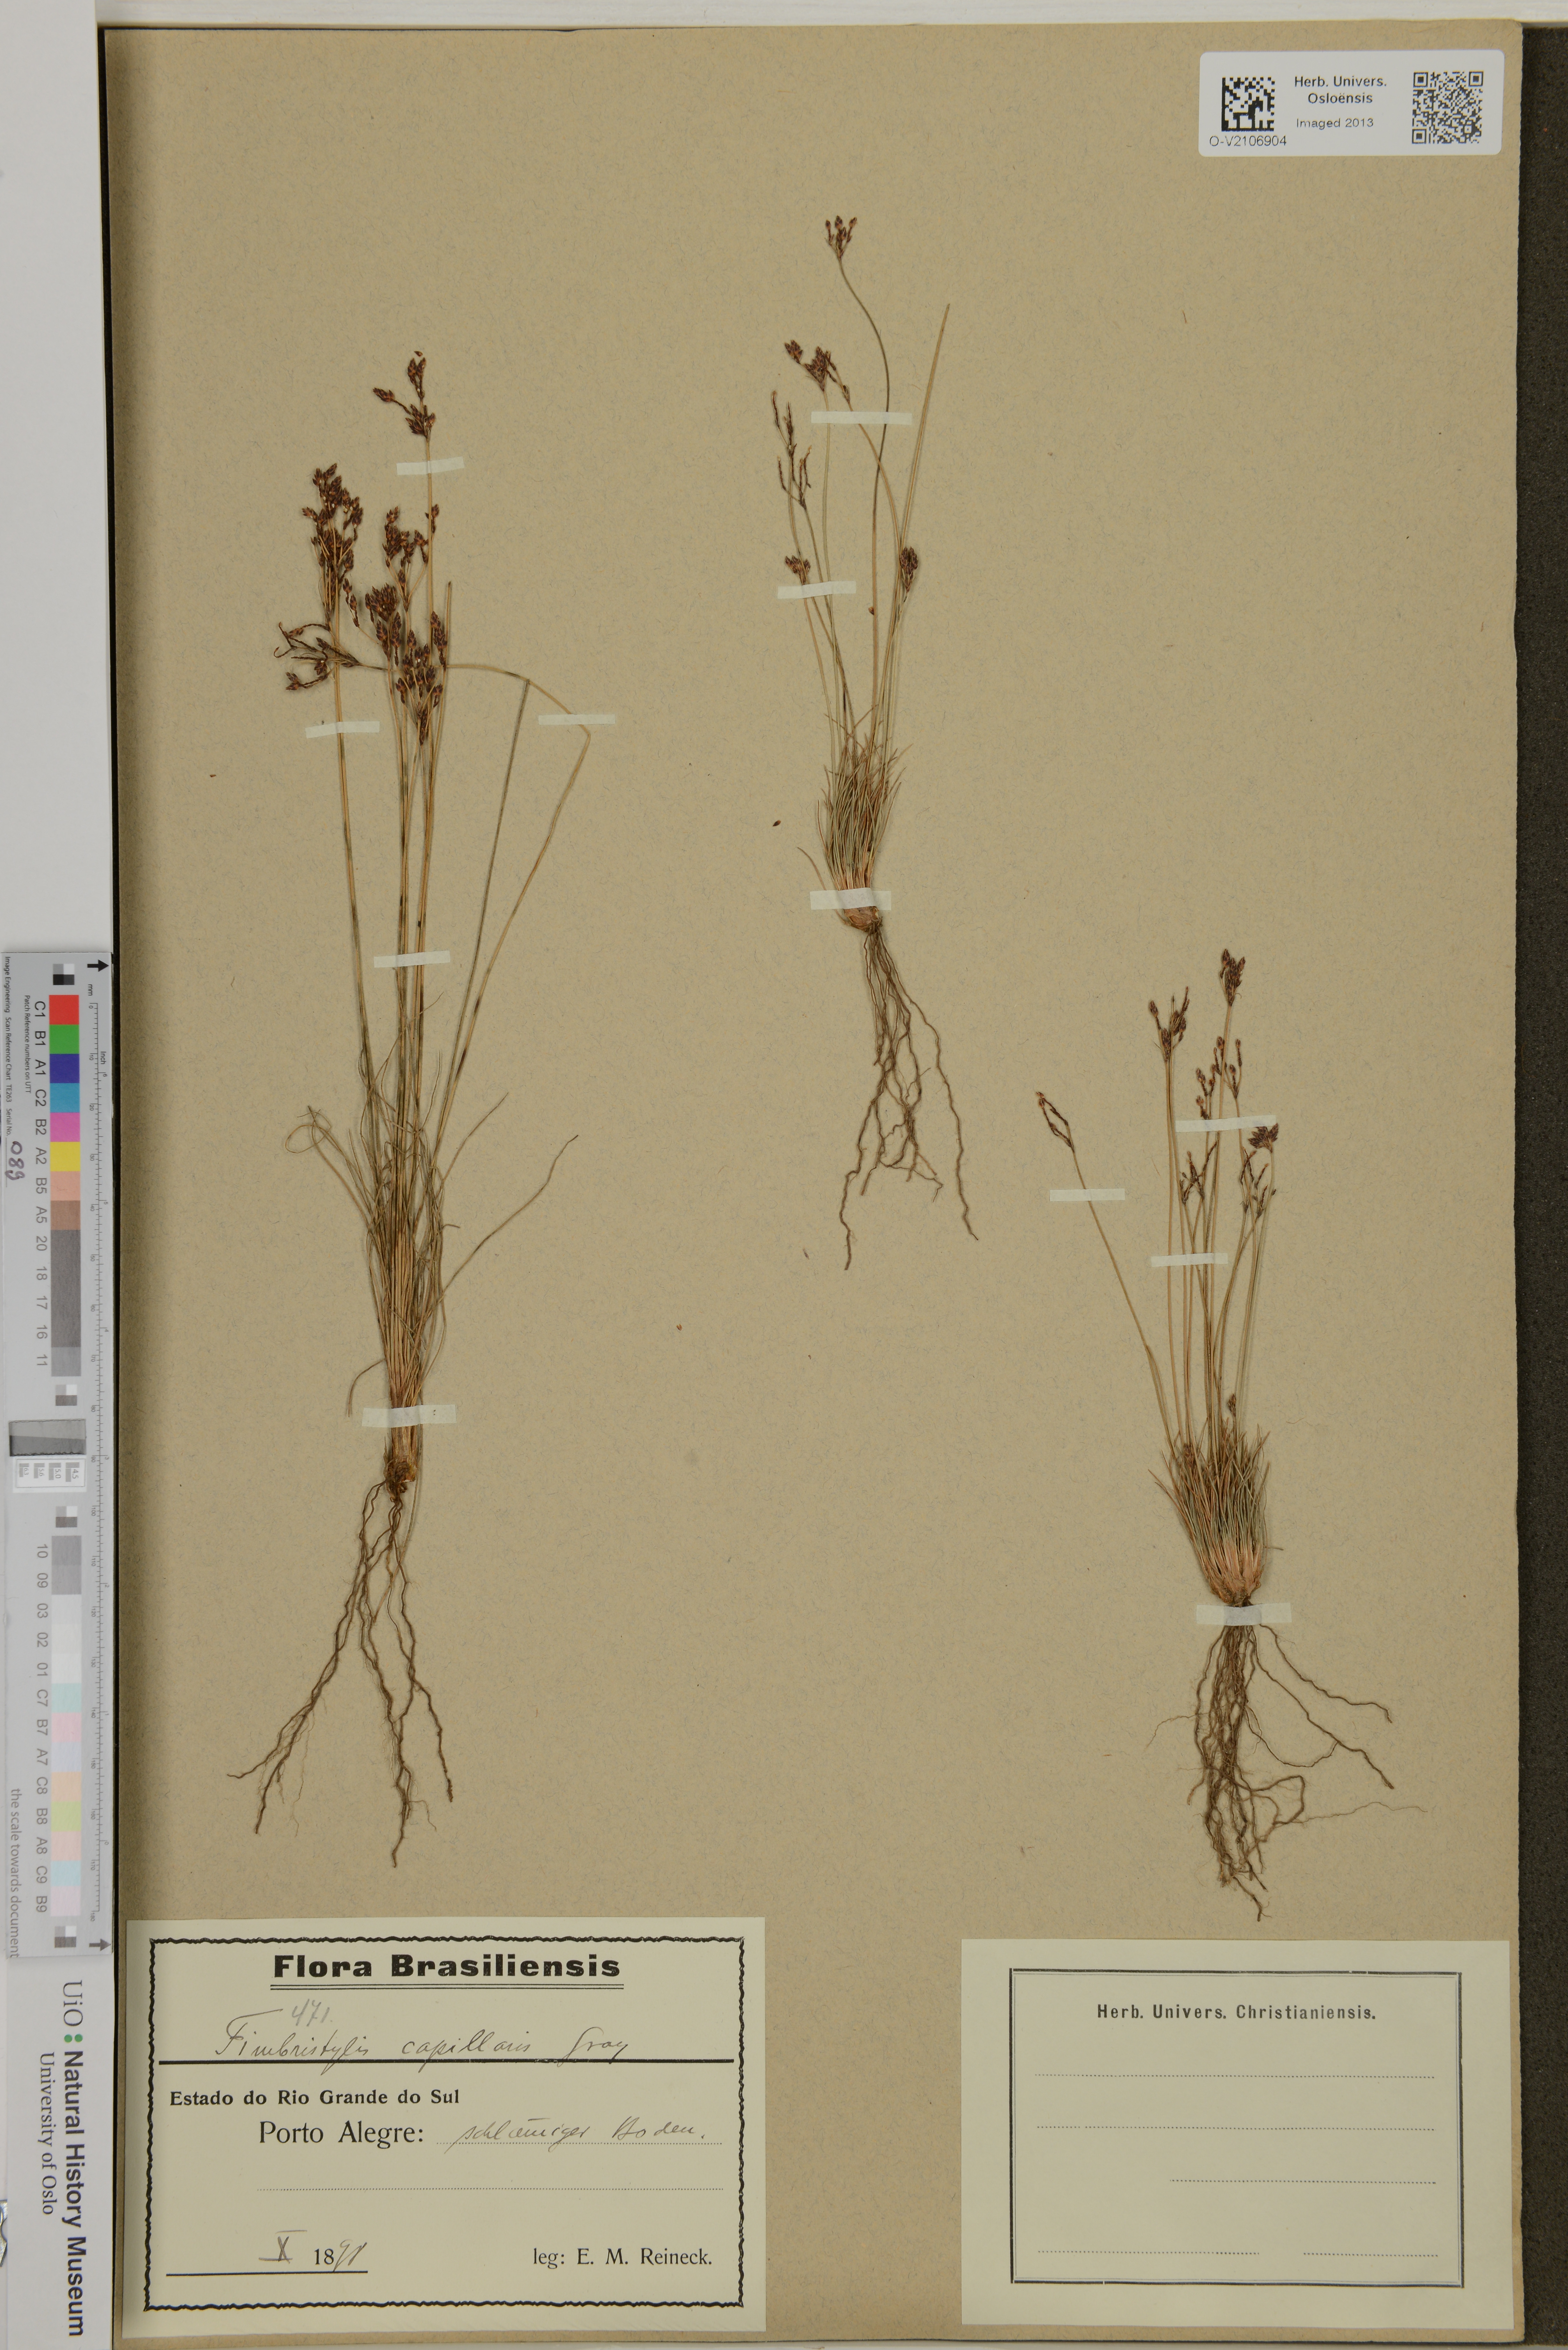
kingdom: Plantae
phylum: Tracheophyta
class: Liliopsida
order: Poales
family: Cyperaceae
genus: Bulbostylis
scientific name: Bulbostylis capillaris
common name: Densetuft hairsedge
